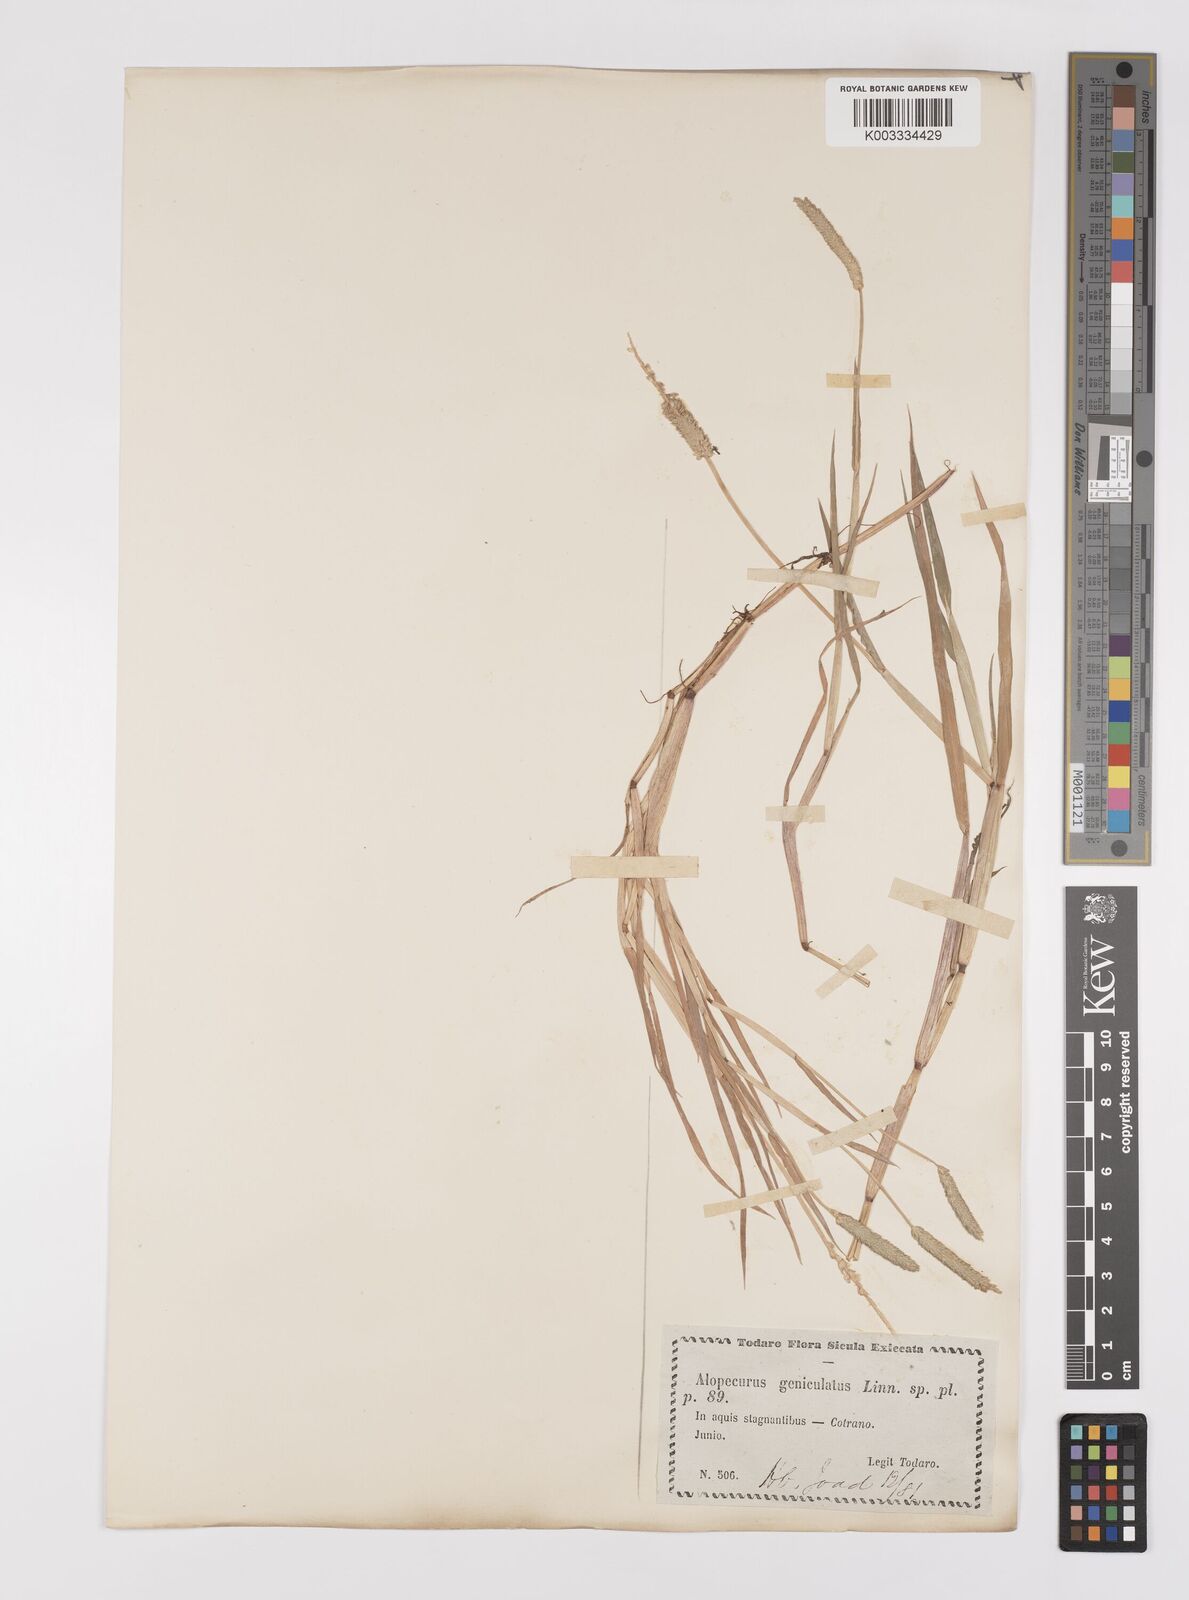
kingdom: Plantae
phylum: Tracheophyta
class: Liliopsida
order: Poales
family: Poaceae
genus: Alopecurus
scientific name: Alopecurus aequalis
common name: Orange foxtail
